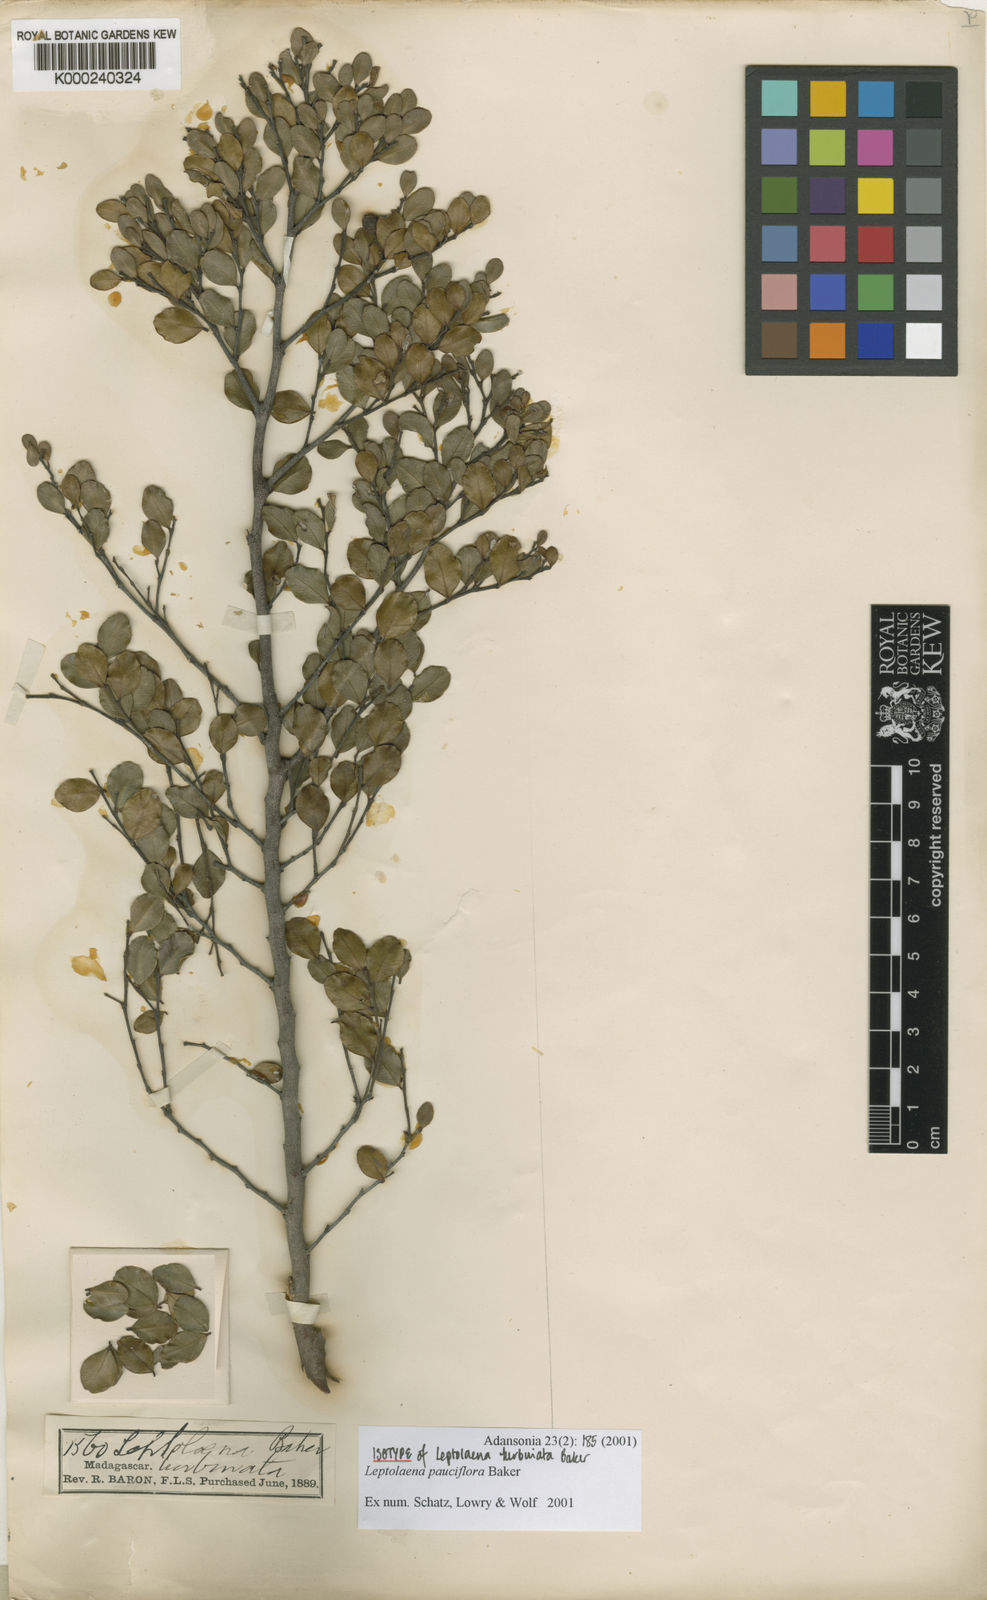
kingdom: Plantae
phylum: Tracheophyta
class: Magnoliopsida
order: Malvales
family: Sarcolaenaceae
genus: Leptolaena
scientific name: Leptolaena pauciflora
